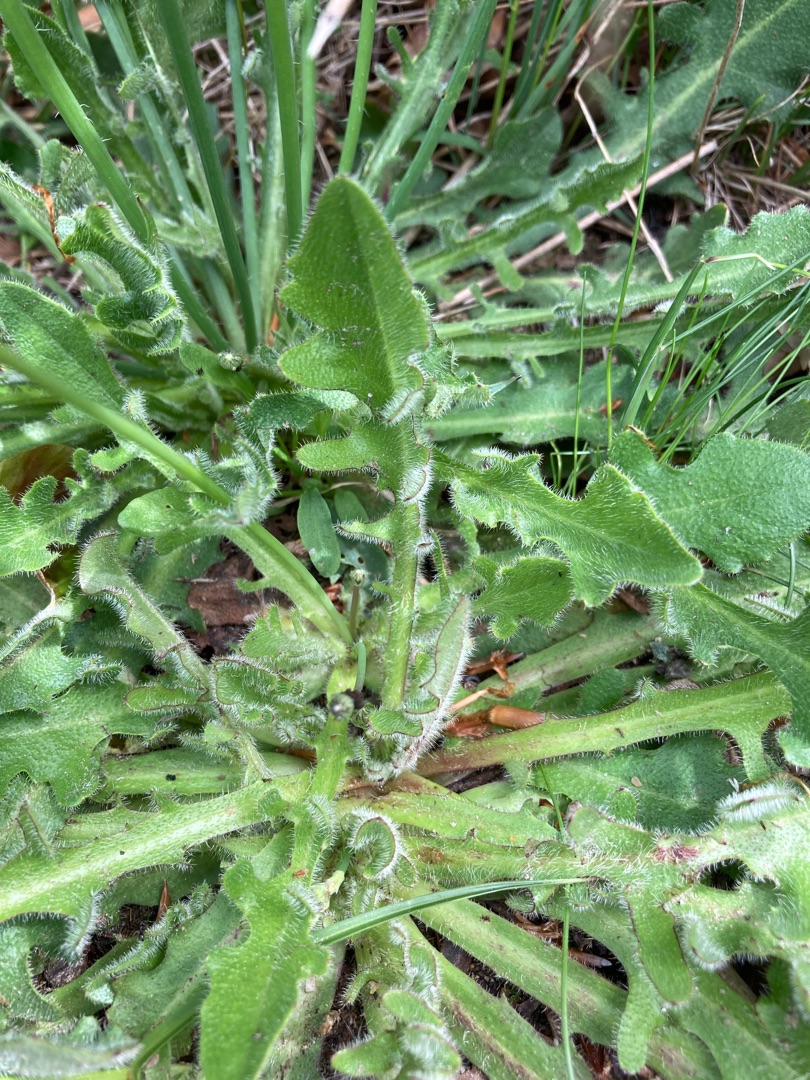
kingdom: Plantae
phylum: Tracheophyta
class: Magnoliopsida
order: Asterales
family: Asteraceae
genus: Hypochaeris
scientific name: Hypochaeris radicata
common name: Almindelig kongepen
